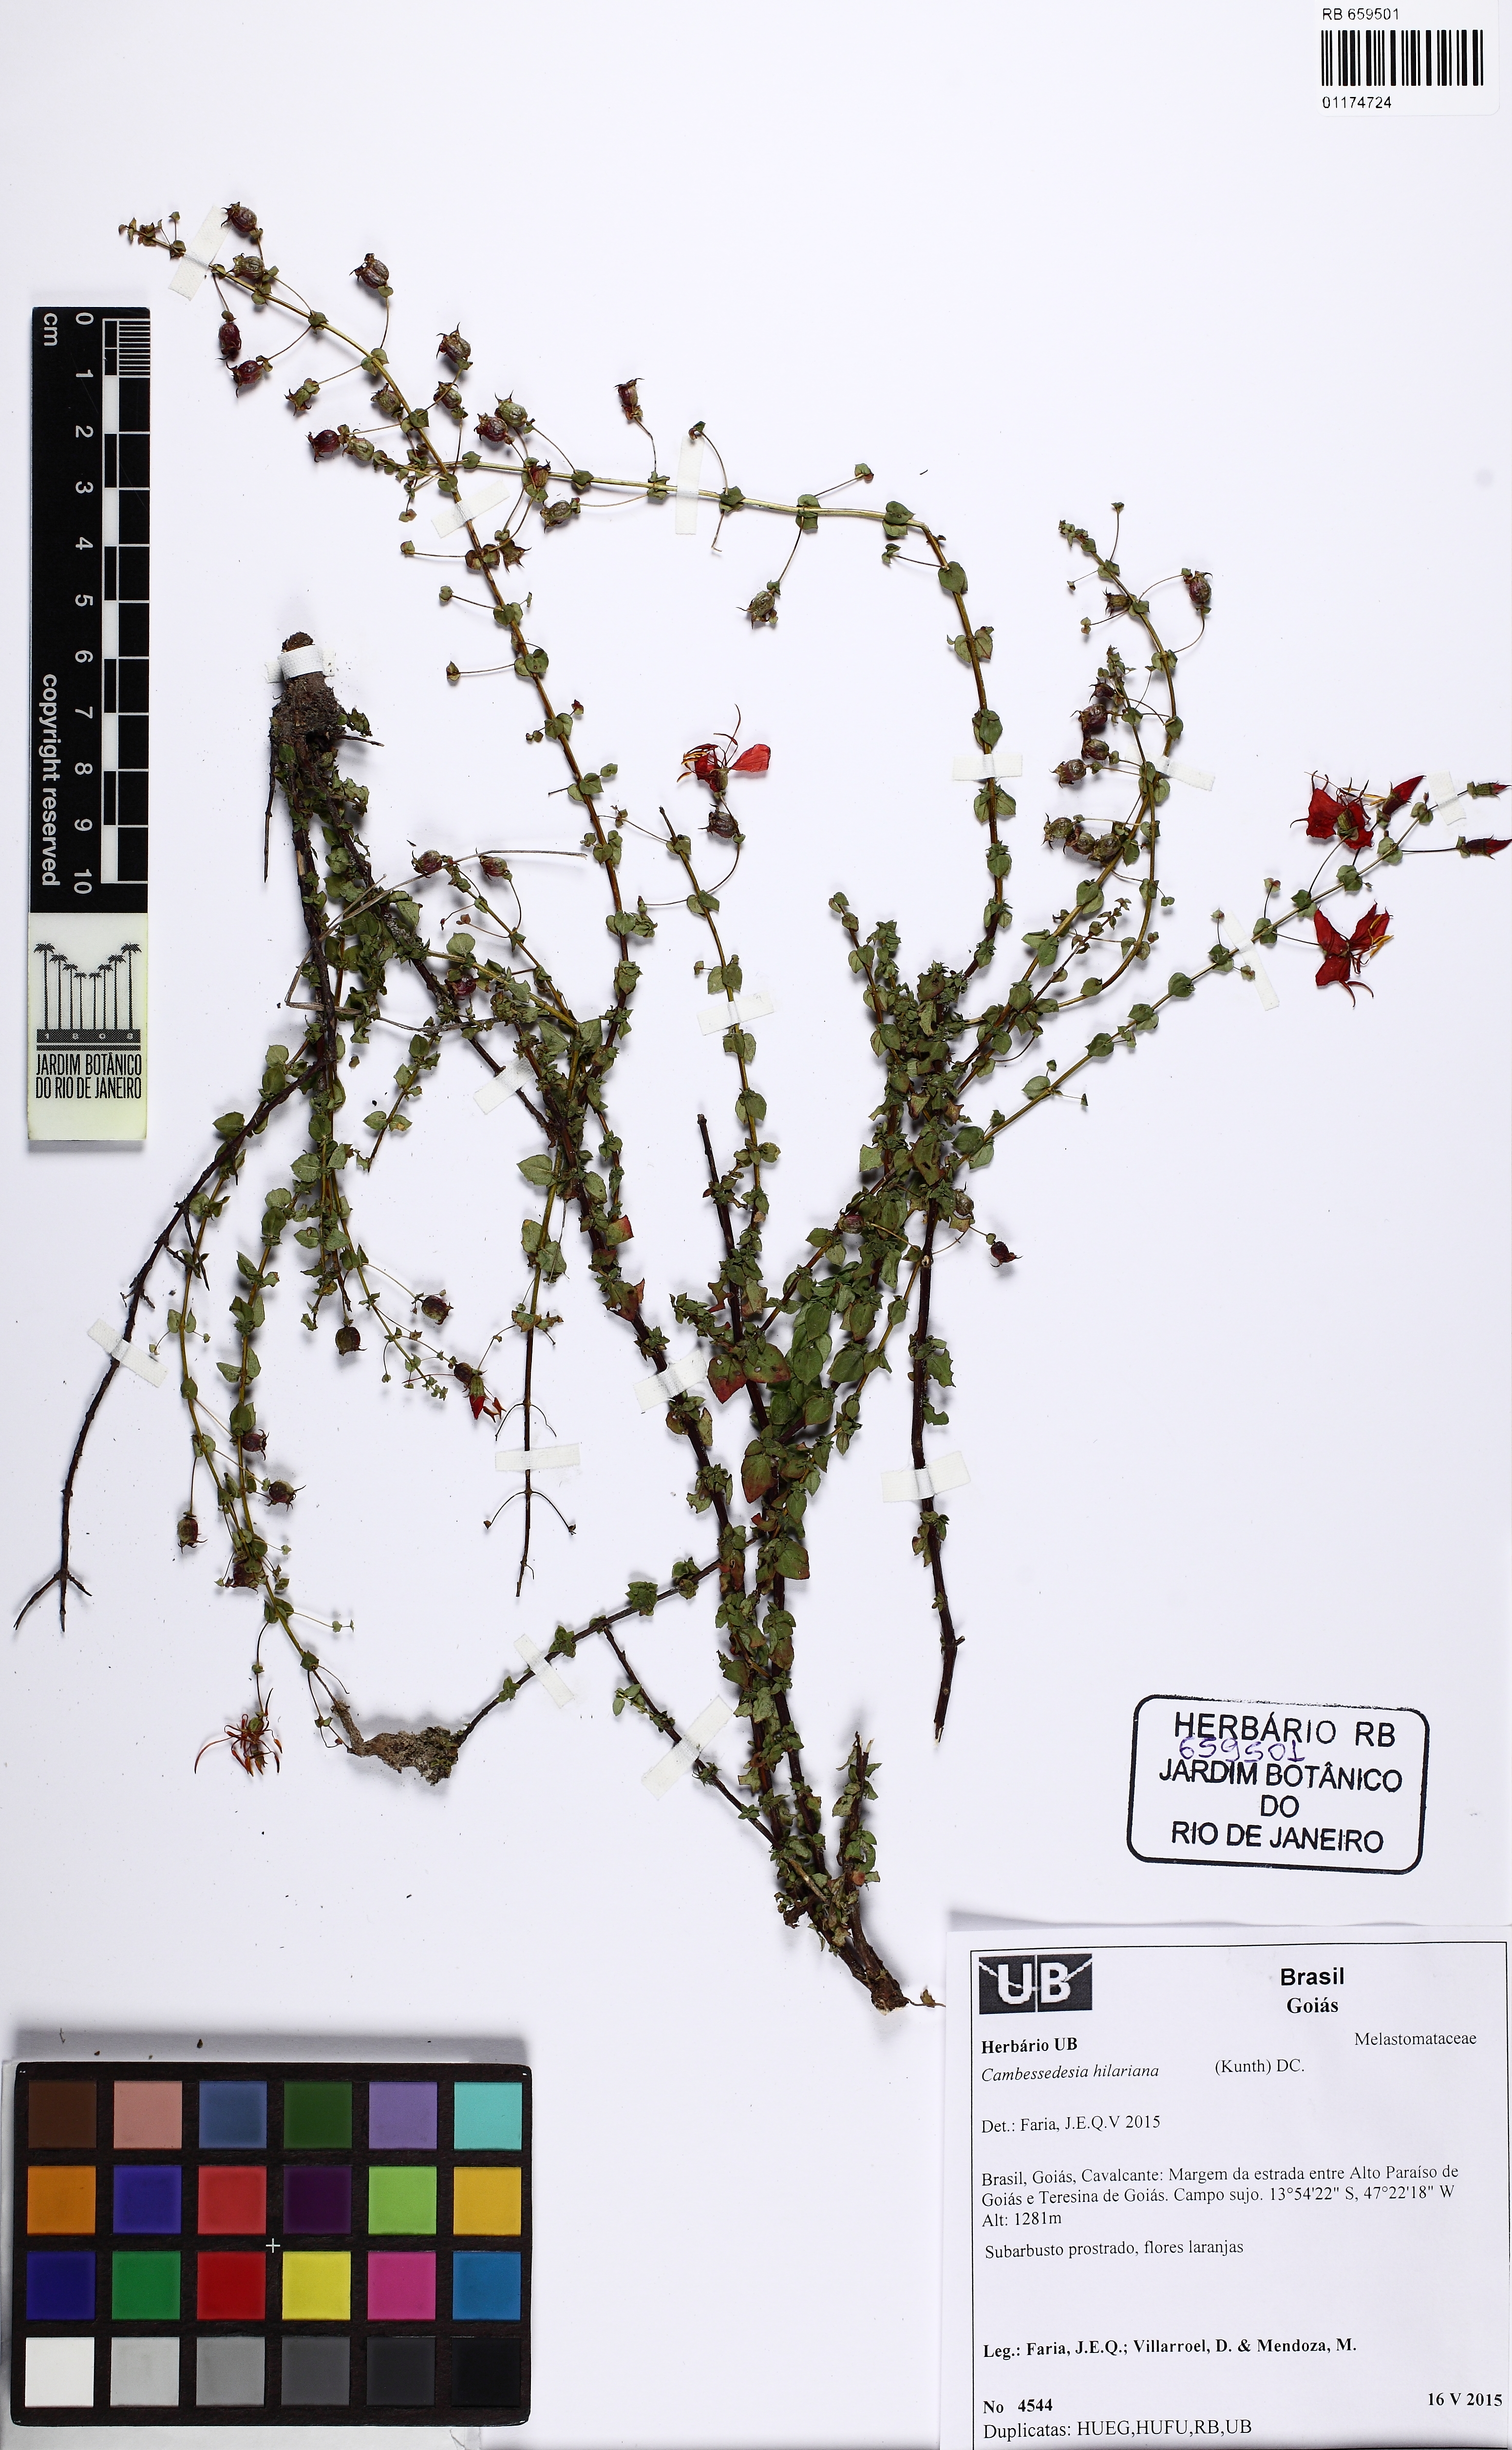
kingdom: Plantae
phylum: Tracheophyta
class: Magnoliopsida
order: Myrtales
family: Melastomataceae
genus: Cambessedesia
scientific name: Cambessedesia hilariana
